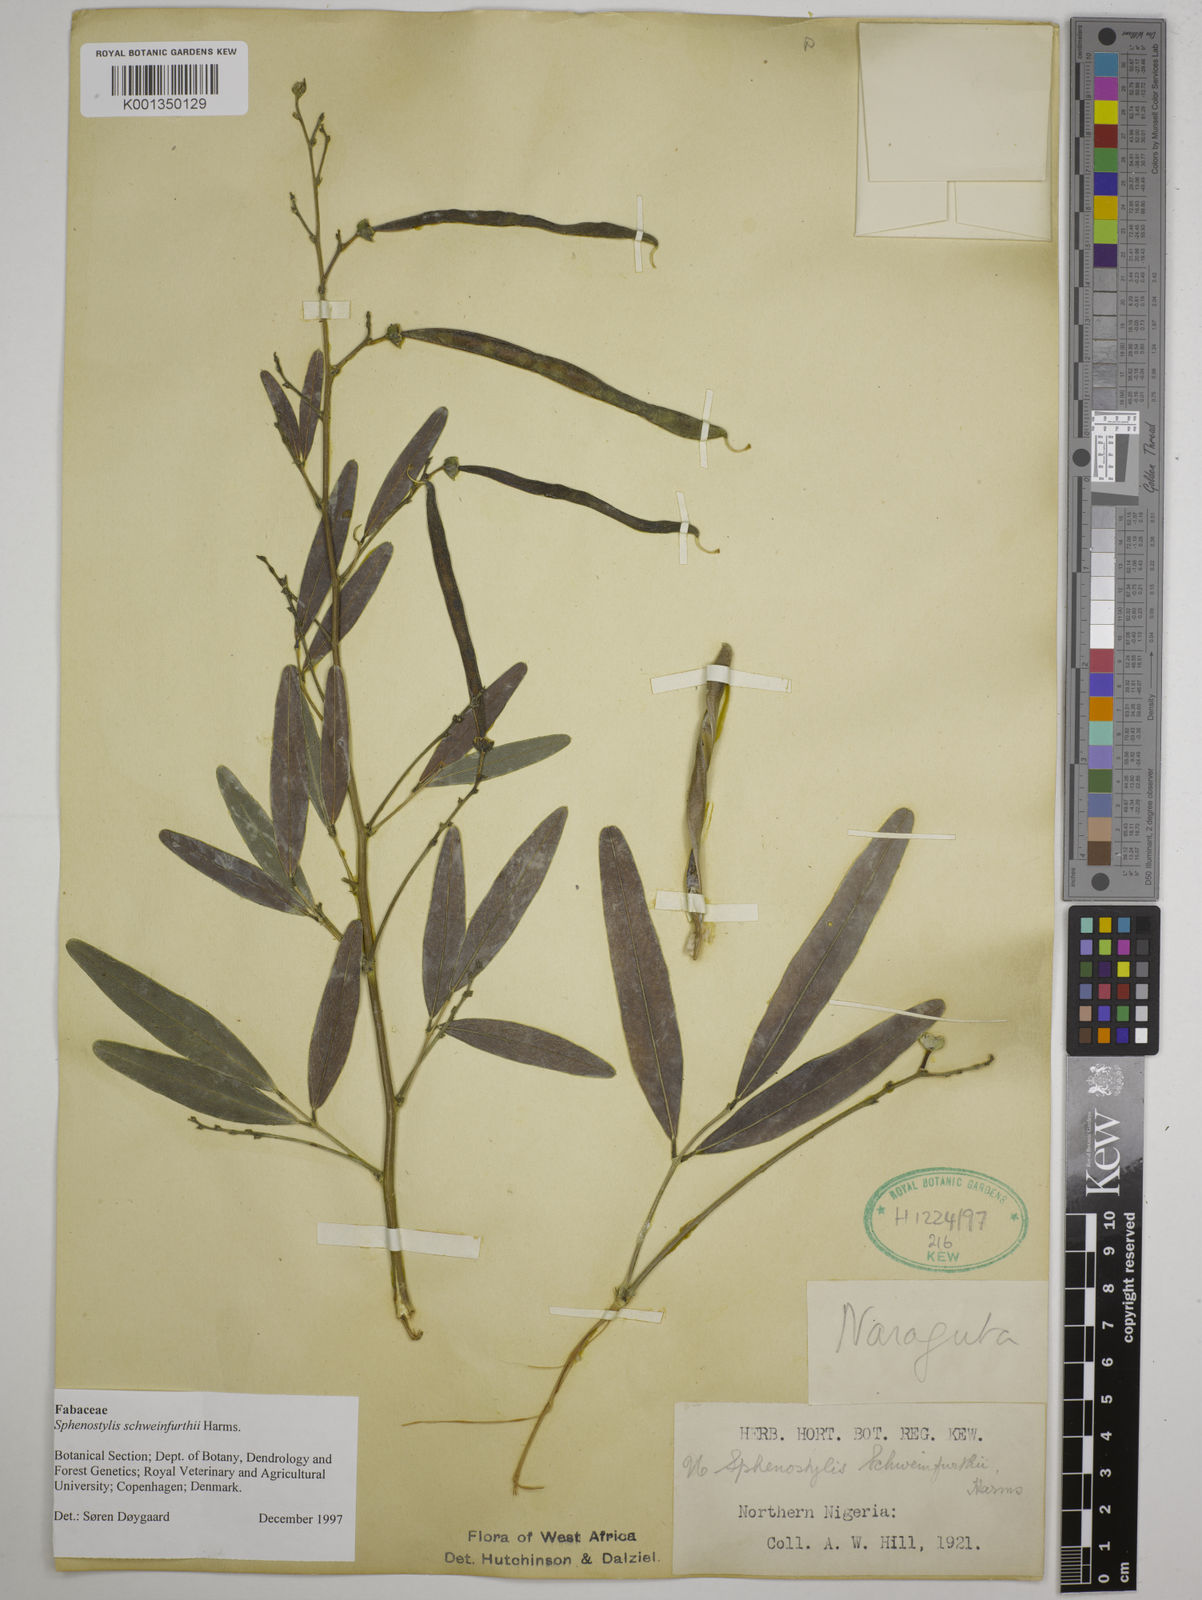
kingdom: Plantae
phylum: Tracheophyta
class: Magnoliopsida
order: Fabales
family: Fabaceae
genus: Sphenostylis
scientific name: Sphenostylis schweinfurthii
